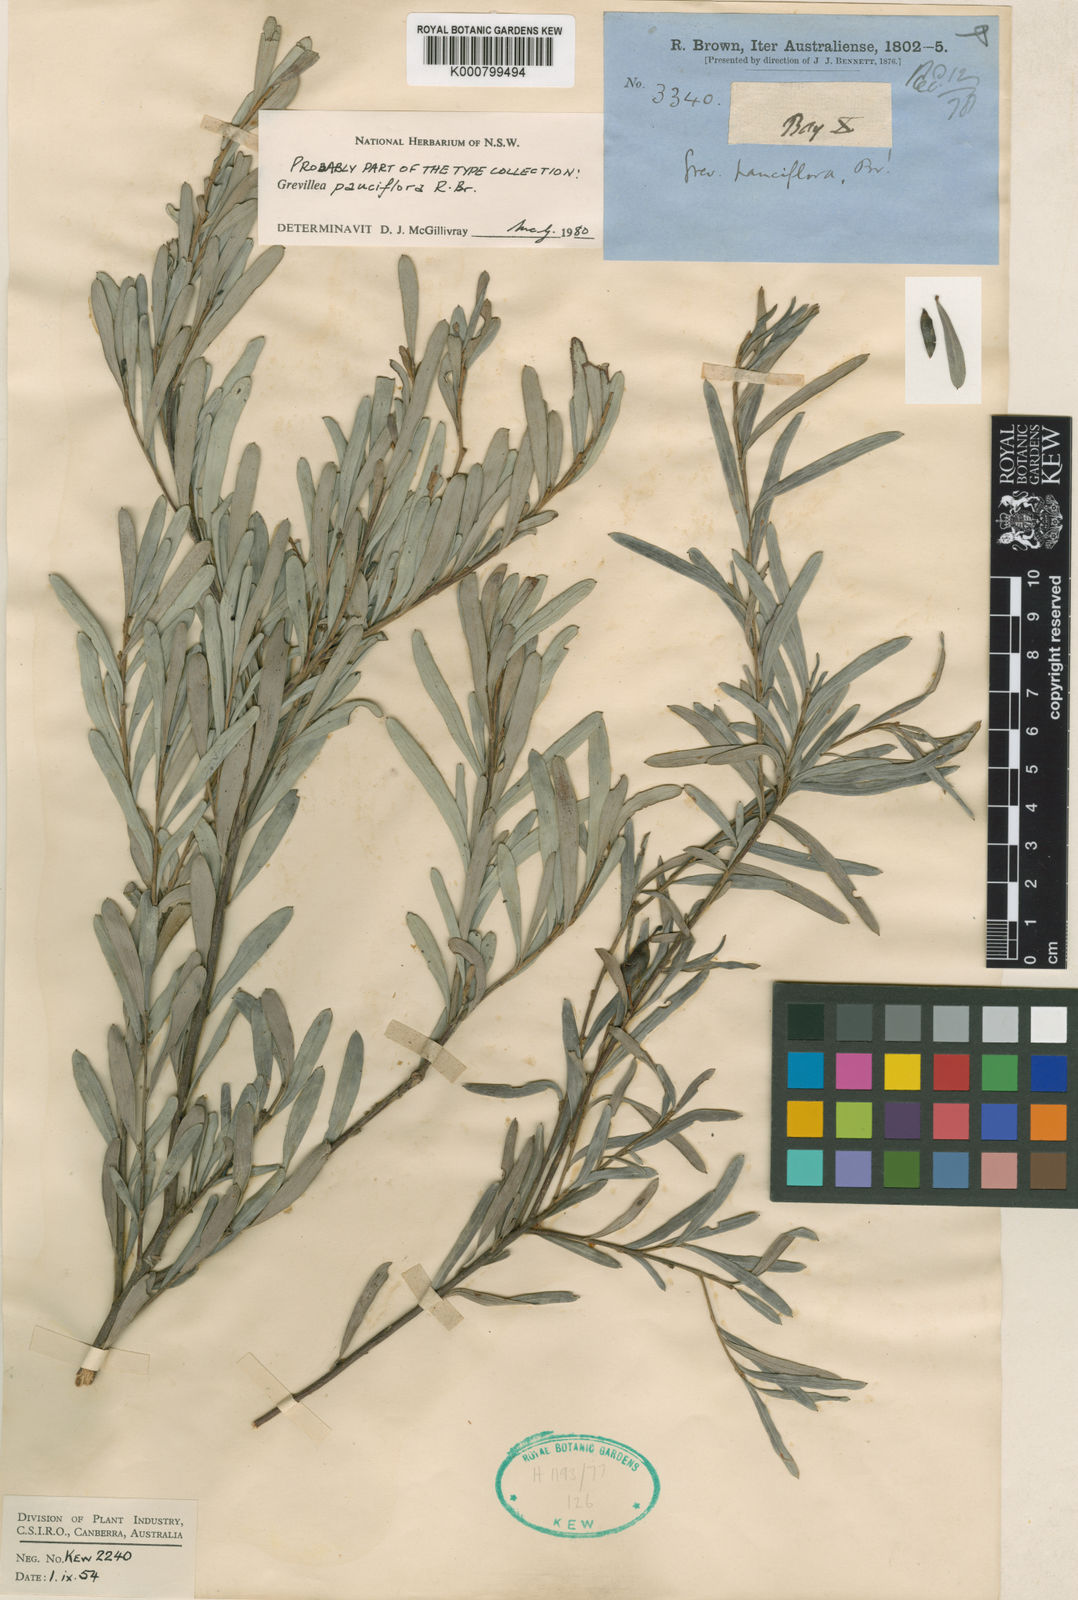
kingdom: Plantae
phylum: Tracheophyta
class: Magnoliopsida
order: Proteales
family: Proteaceae
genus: Grevillea
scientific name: Grevillea pauciflora
